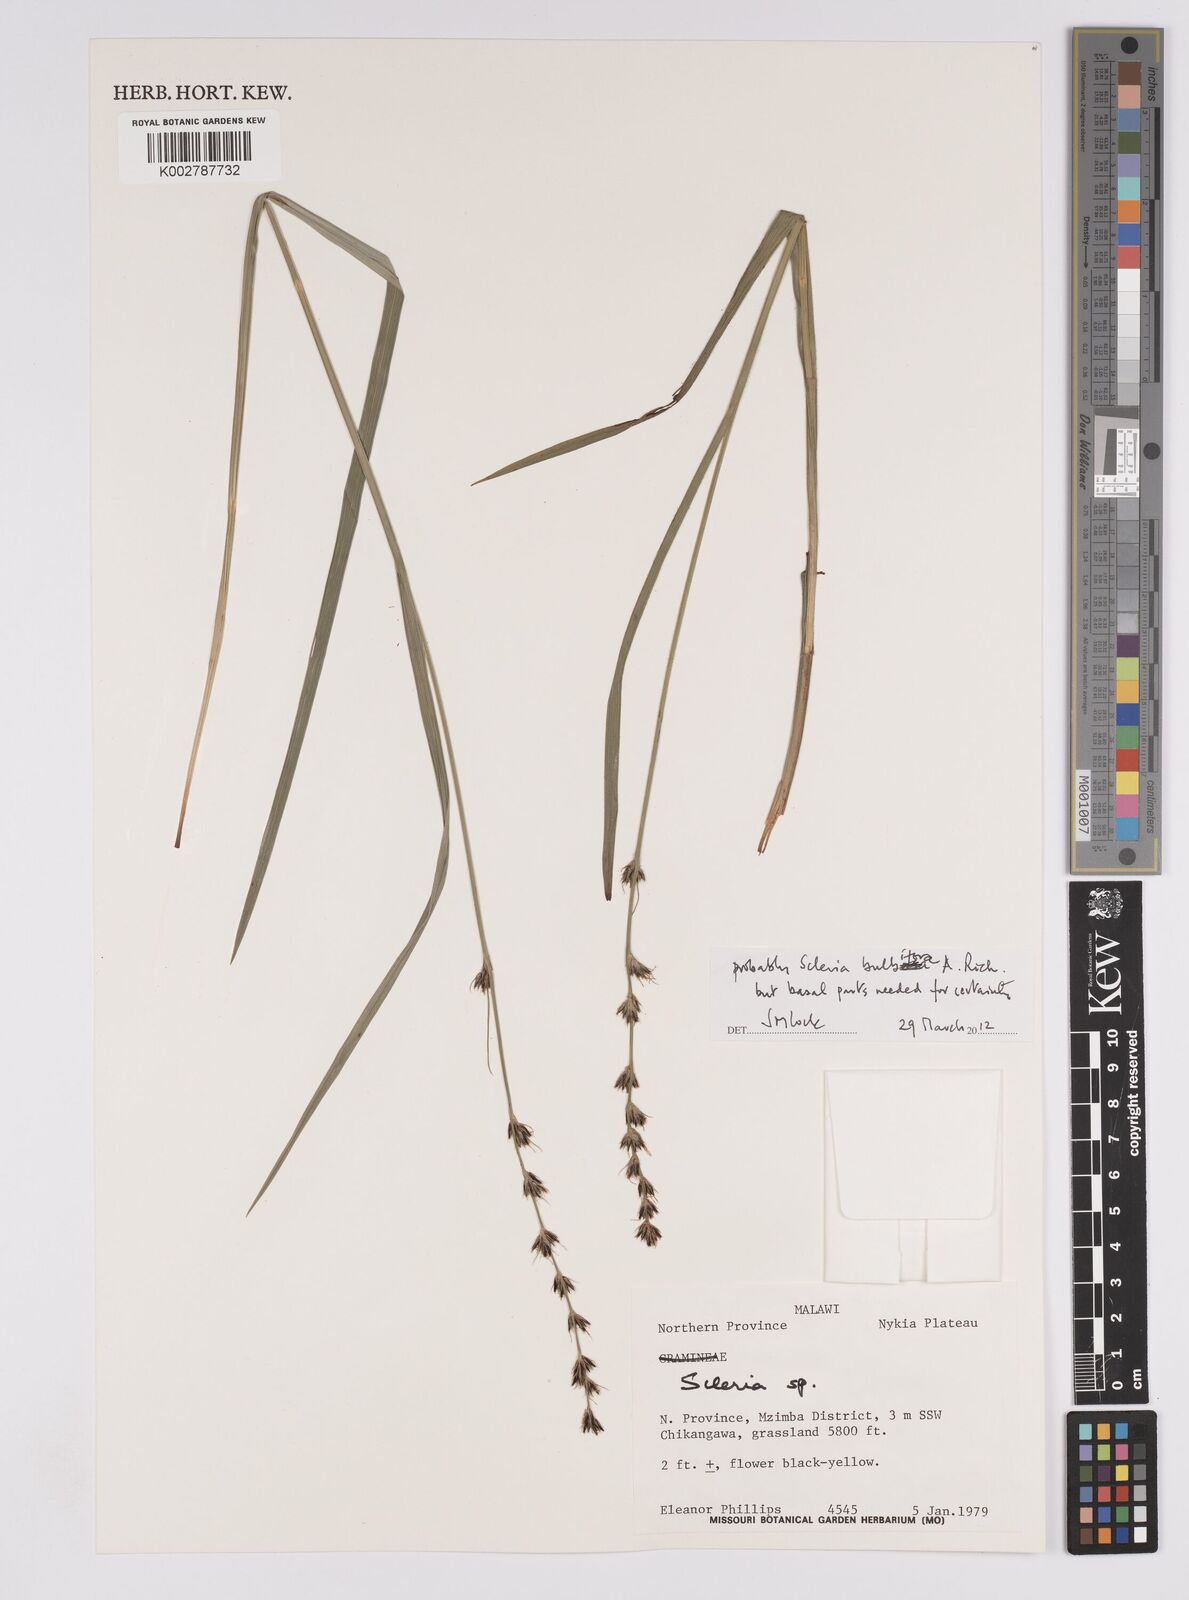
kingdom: Plantae
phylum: Tracheophyta
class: Liliopsida
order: Poales
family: Cyperaceae
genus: Scleria
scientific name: Scleria bulbifera
